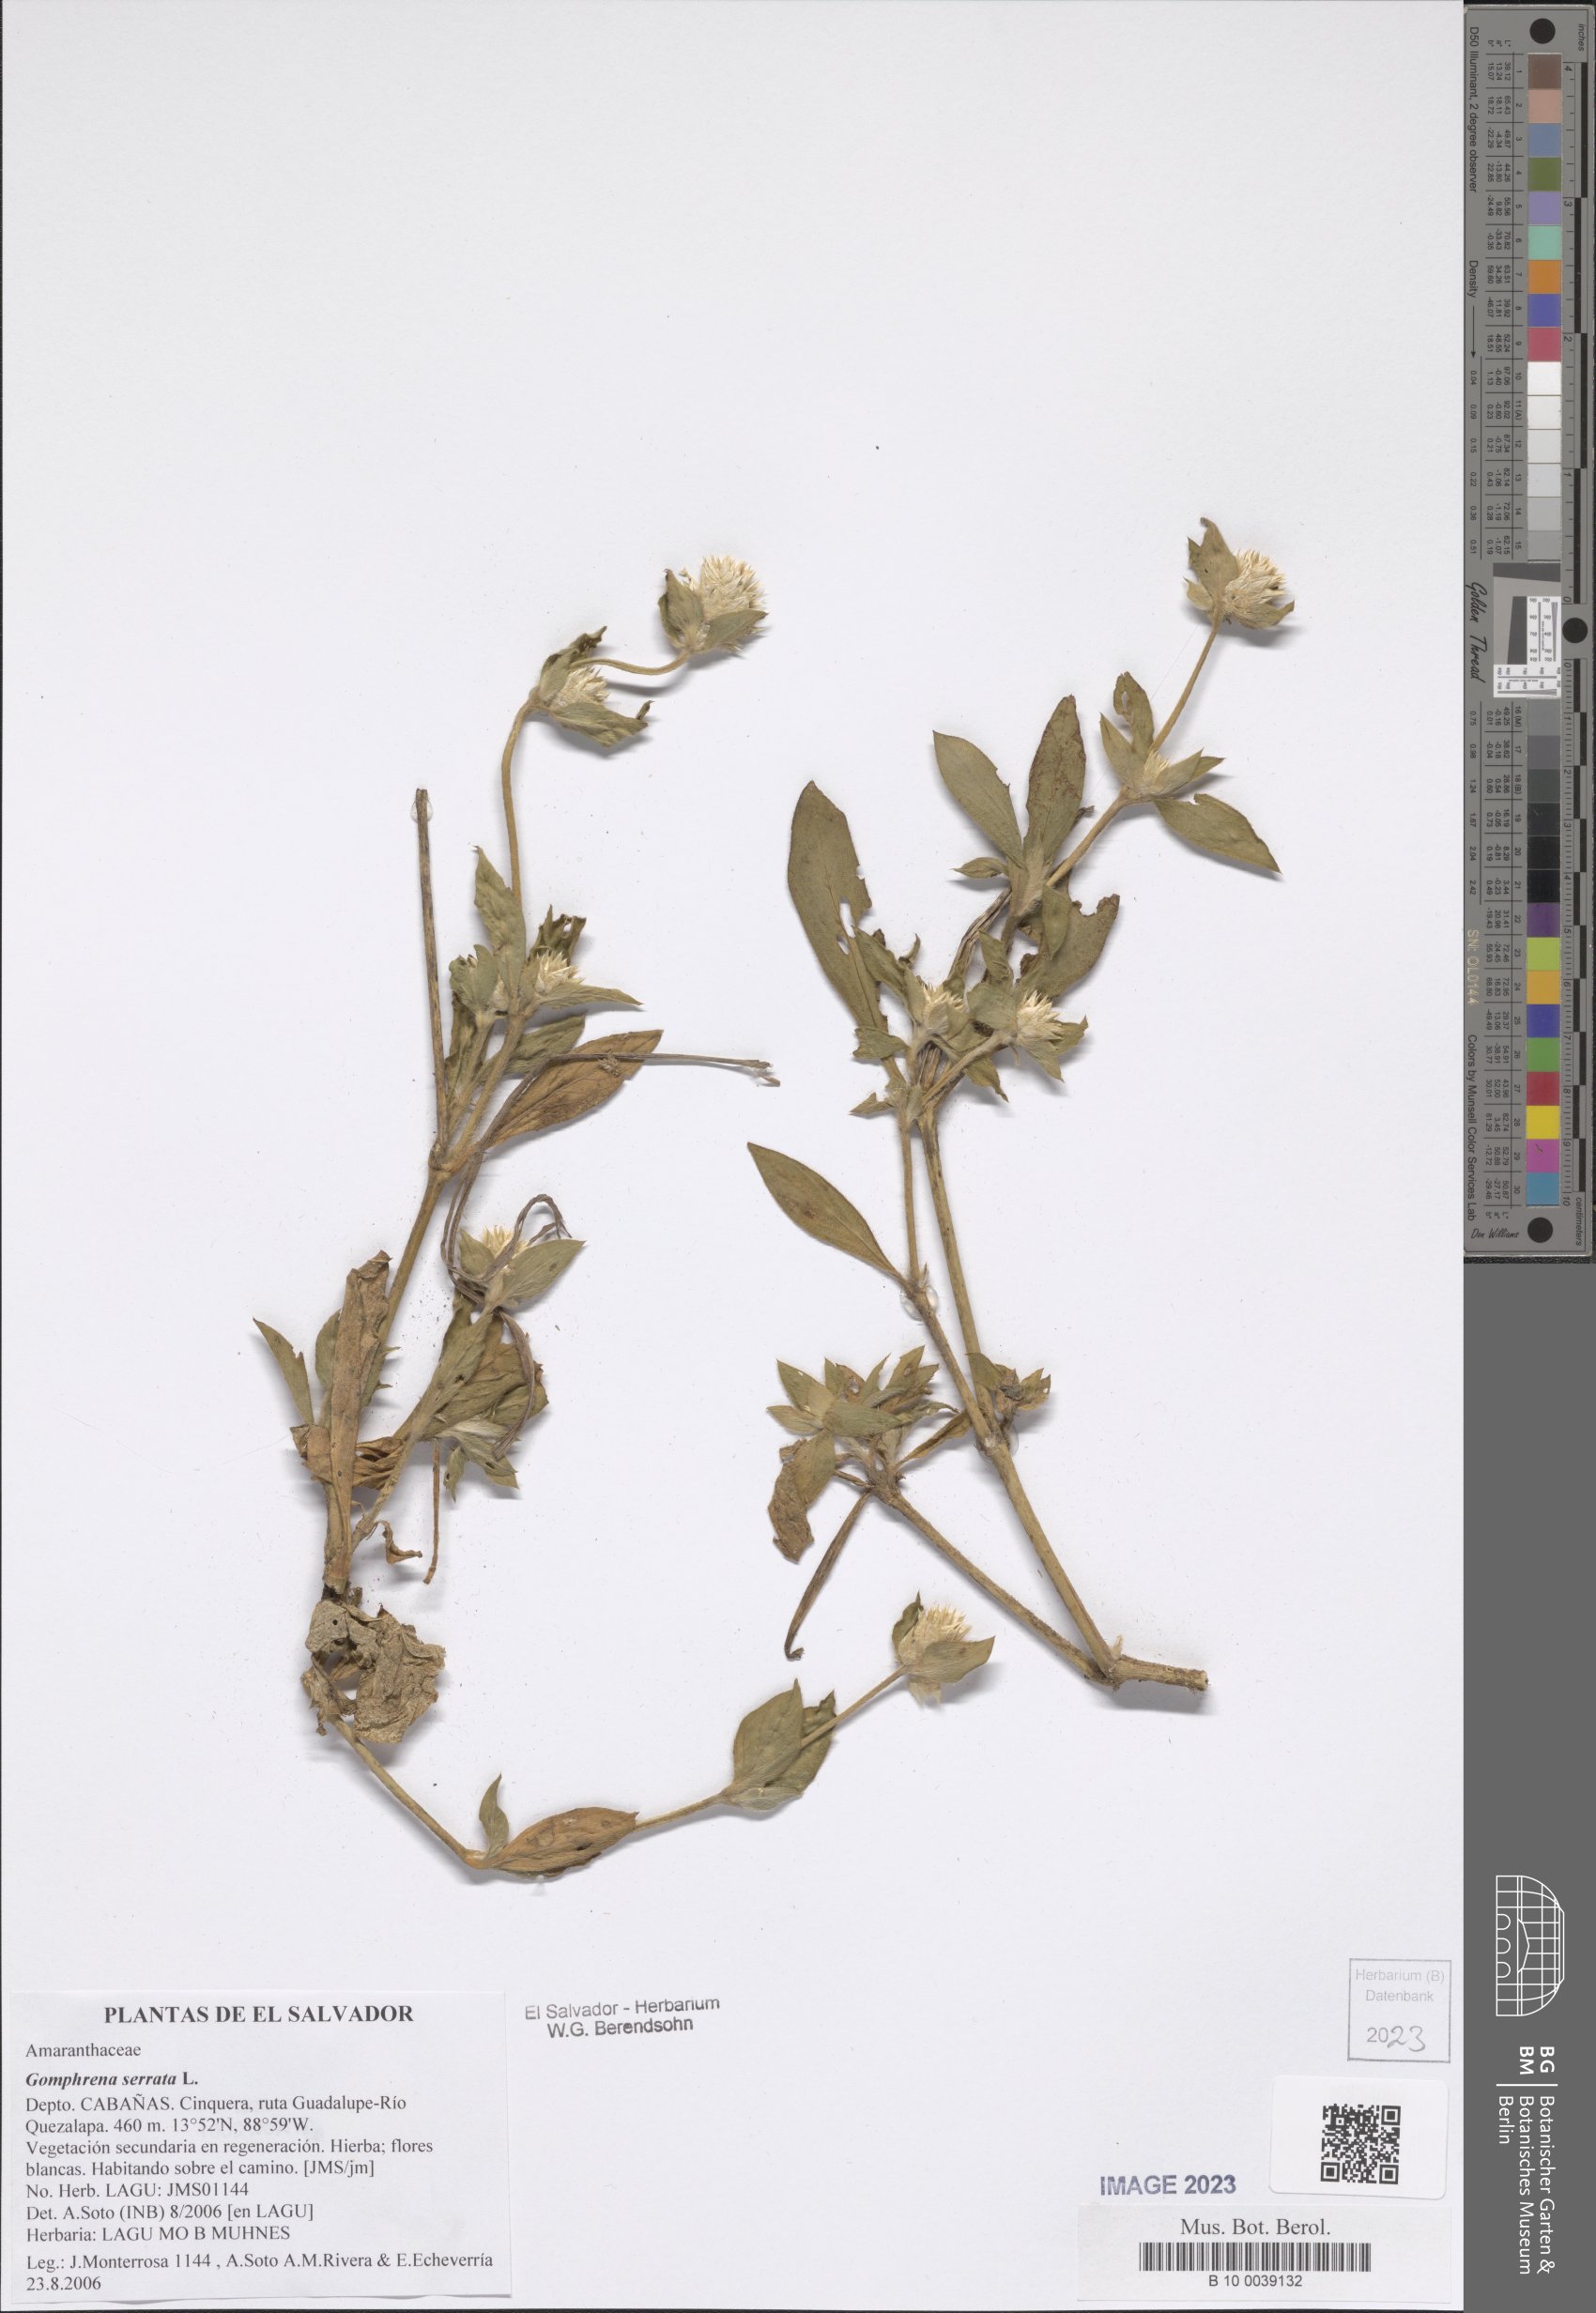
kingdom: Plantae
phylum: Tracheophyta
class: Magnoliopsida
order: Caryophyllales
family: Amaranthaceae
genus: Gomphrena
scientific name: Gomphrena serrata
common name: Arrasa con todo
